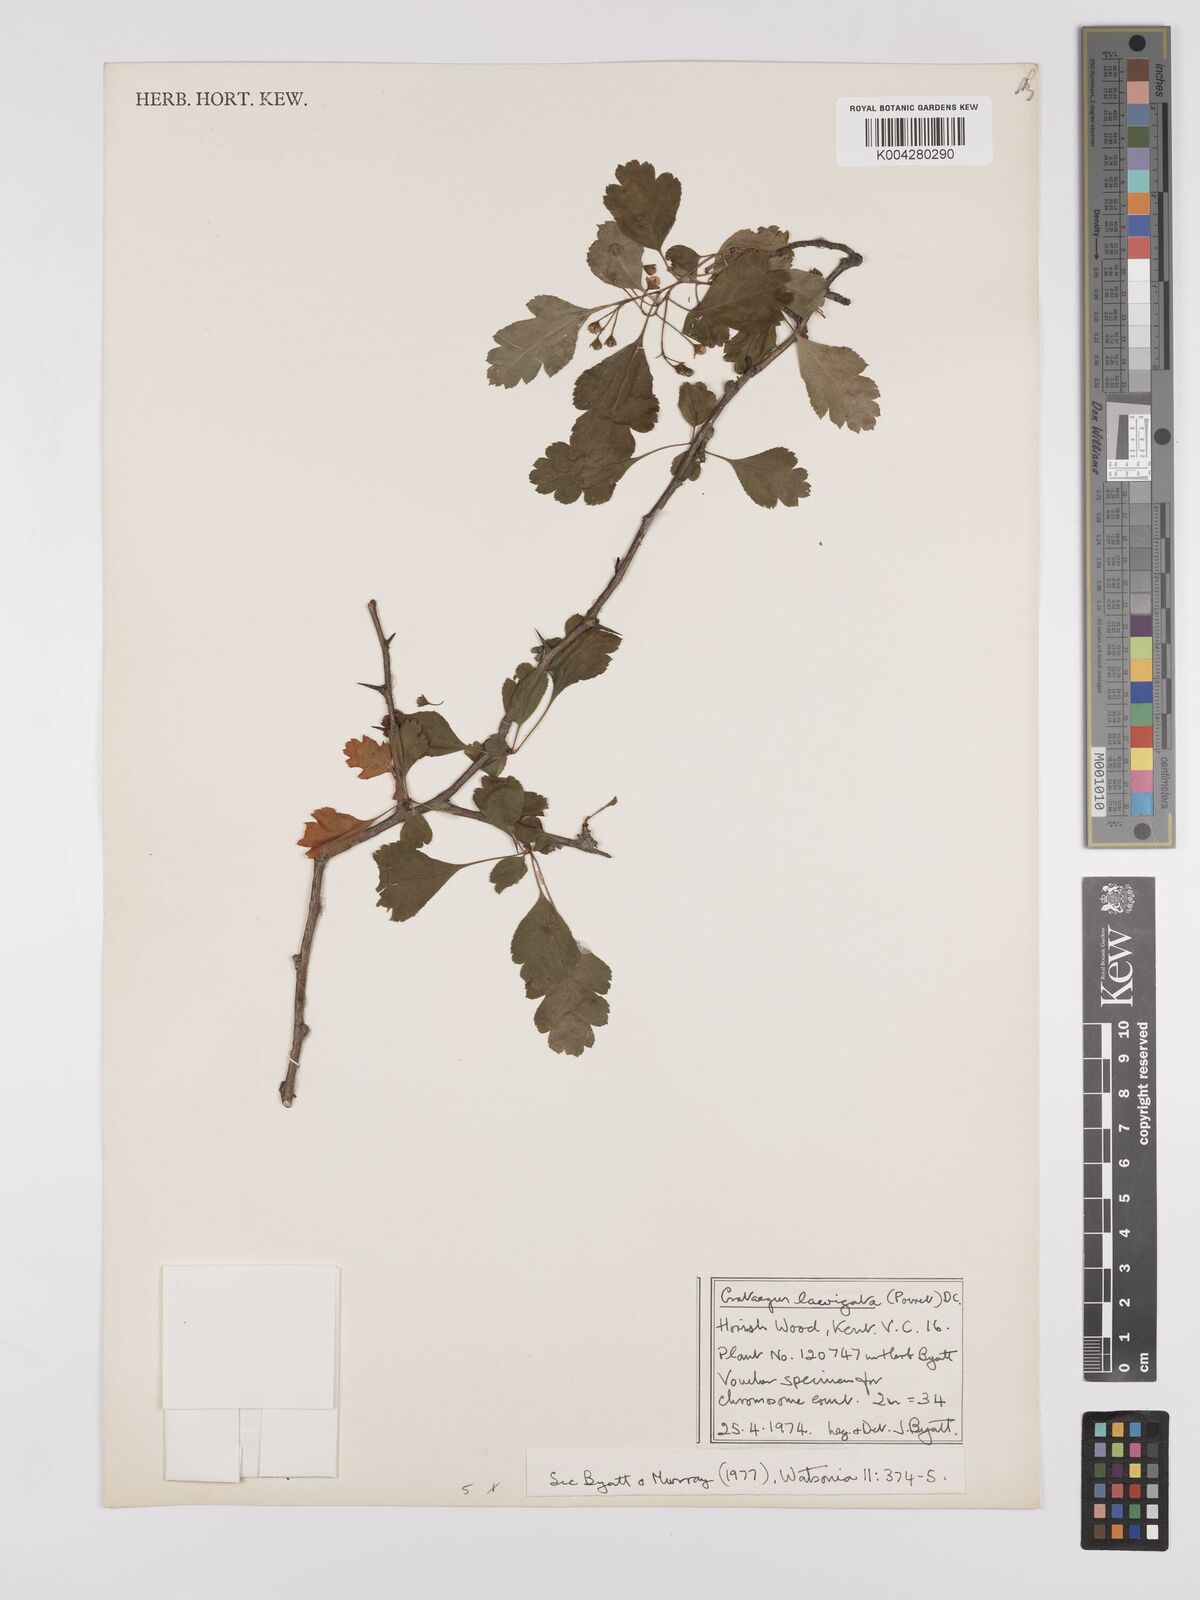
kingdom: Plantae
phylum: Tracheophyta
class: Magnoliopsida
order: Rosales
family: Rosaceae
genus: Crataegus
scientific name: Crataegus laevigata
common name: Midland hawthorn
